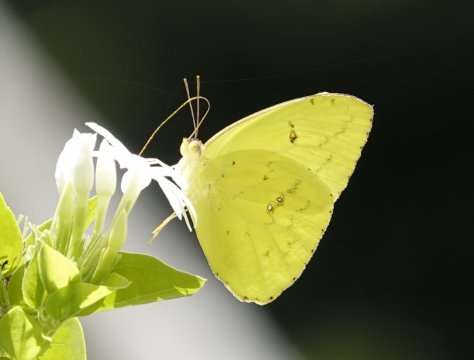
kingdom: Animalia
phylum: Arthropoda
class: Insecta
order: Lepidoptera
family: Pieridae
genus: Phoebis
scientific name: Phoebis sennae
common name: Cloudless Sulphur
